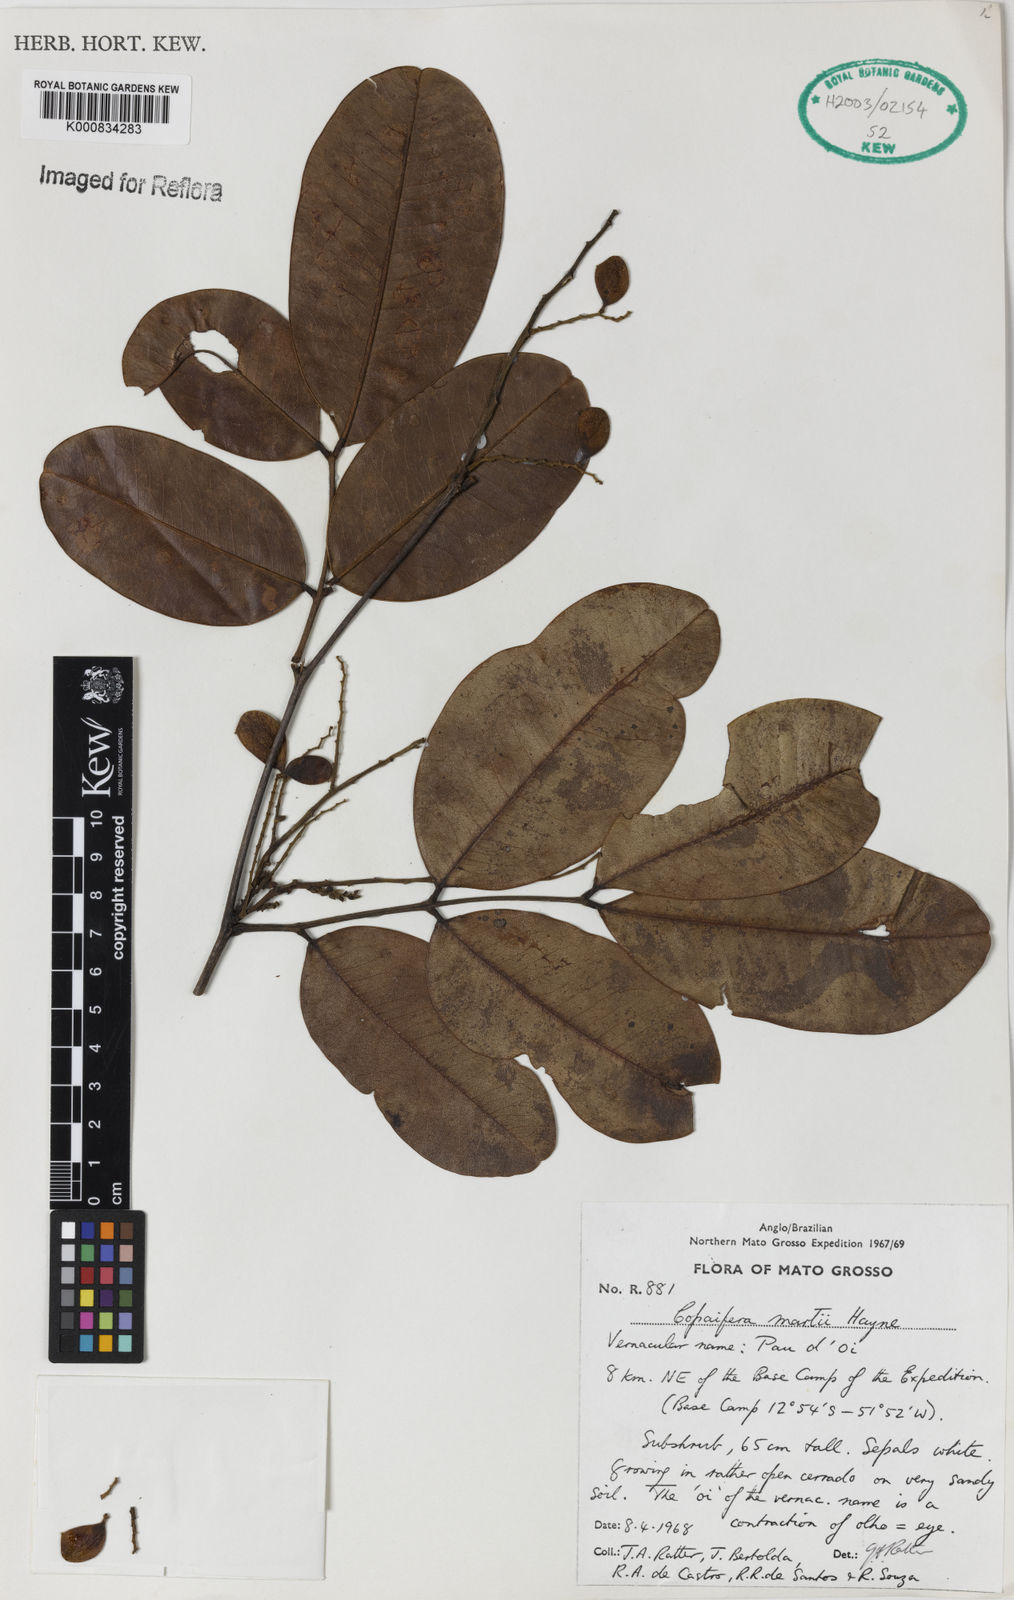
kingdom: Plantae
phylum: Tracheophyta
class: Magnoliopsida
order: Fabales
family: Fabaceae
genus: Copaifera
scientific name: Copaifera martii
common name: Copaiba
